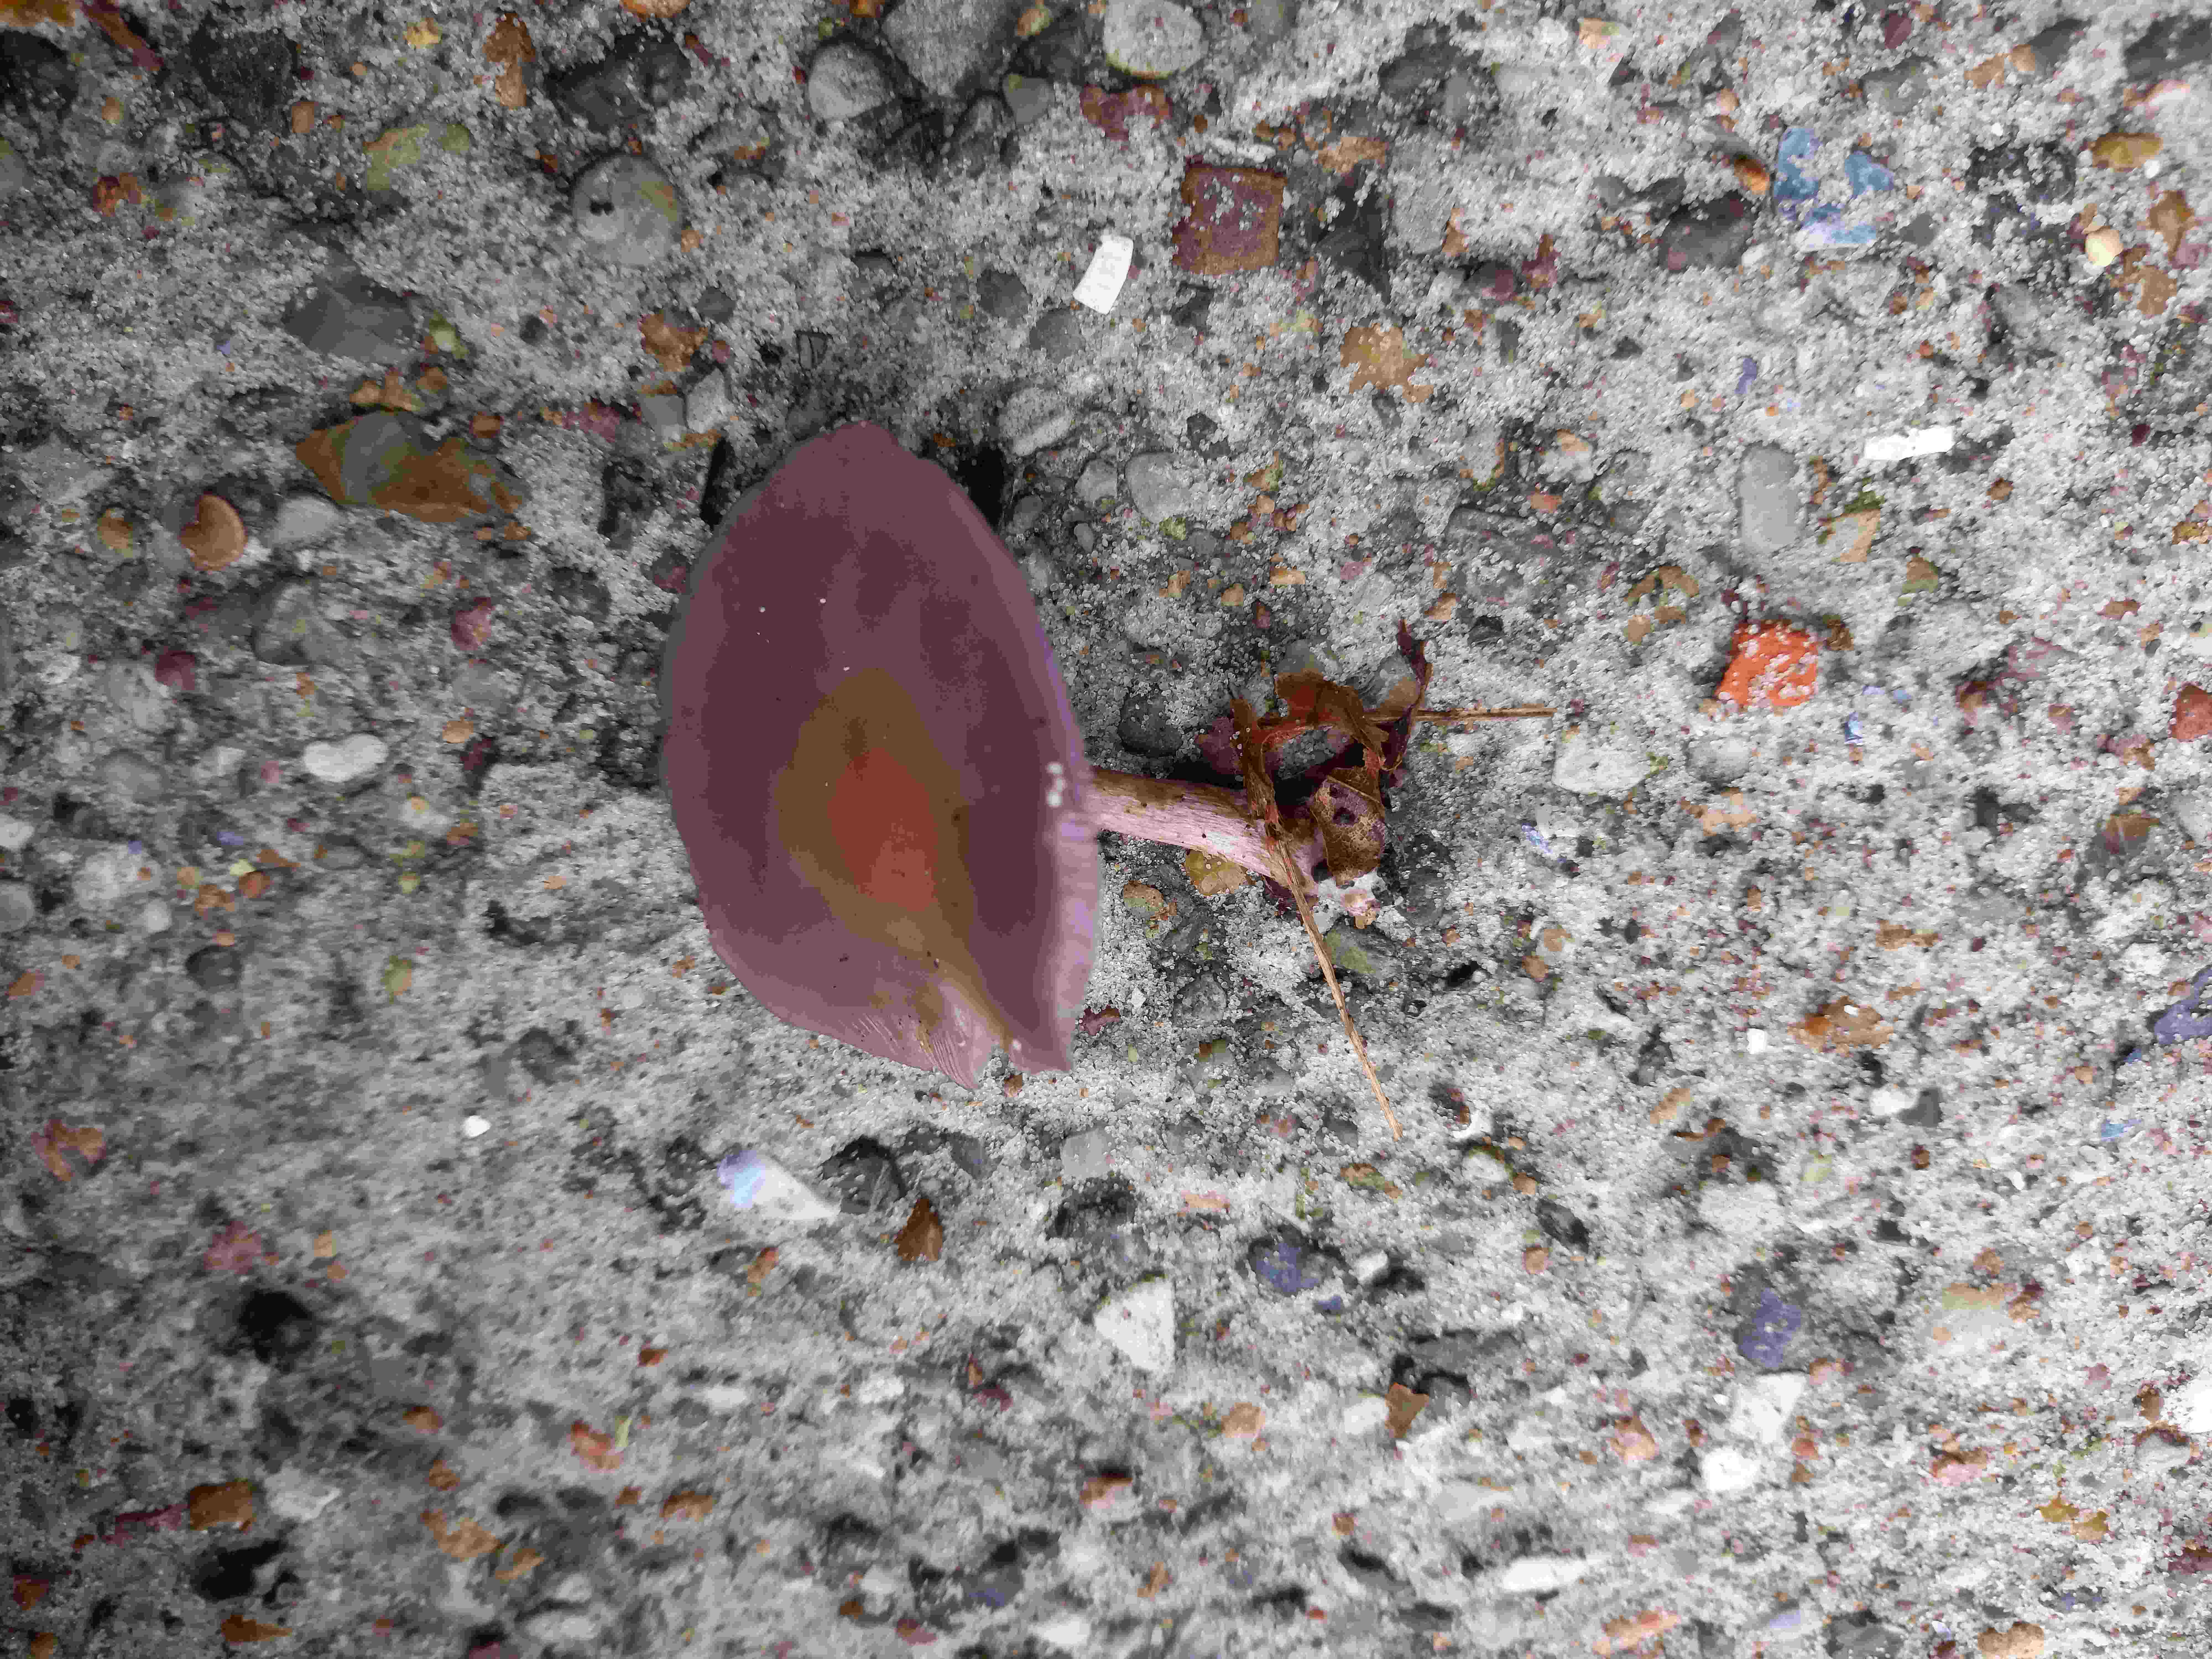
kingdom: Fungi
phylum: Basidiomycota
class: Agaricomycetes
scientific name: Agaricomycetes
